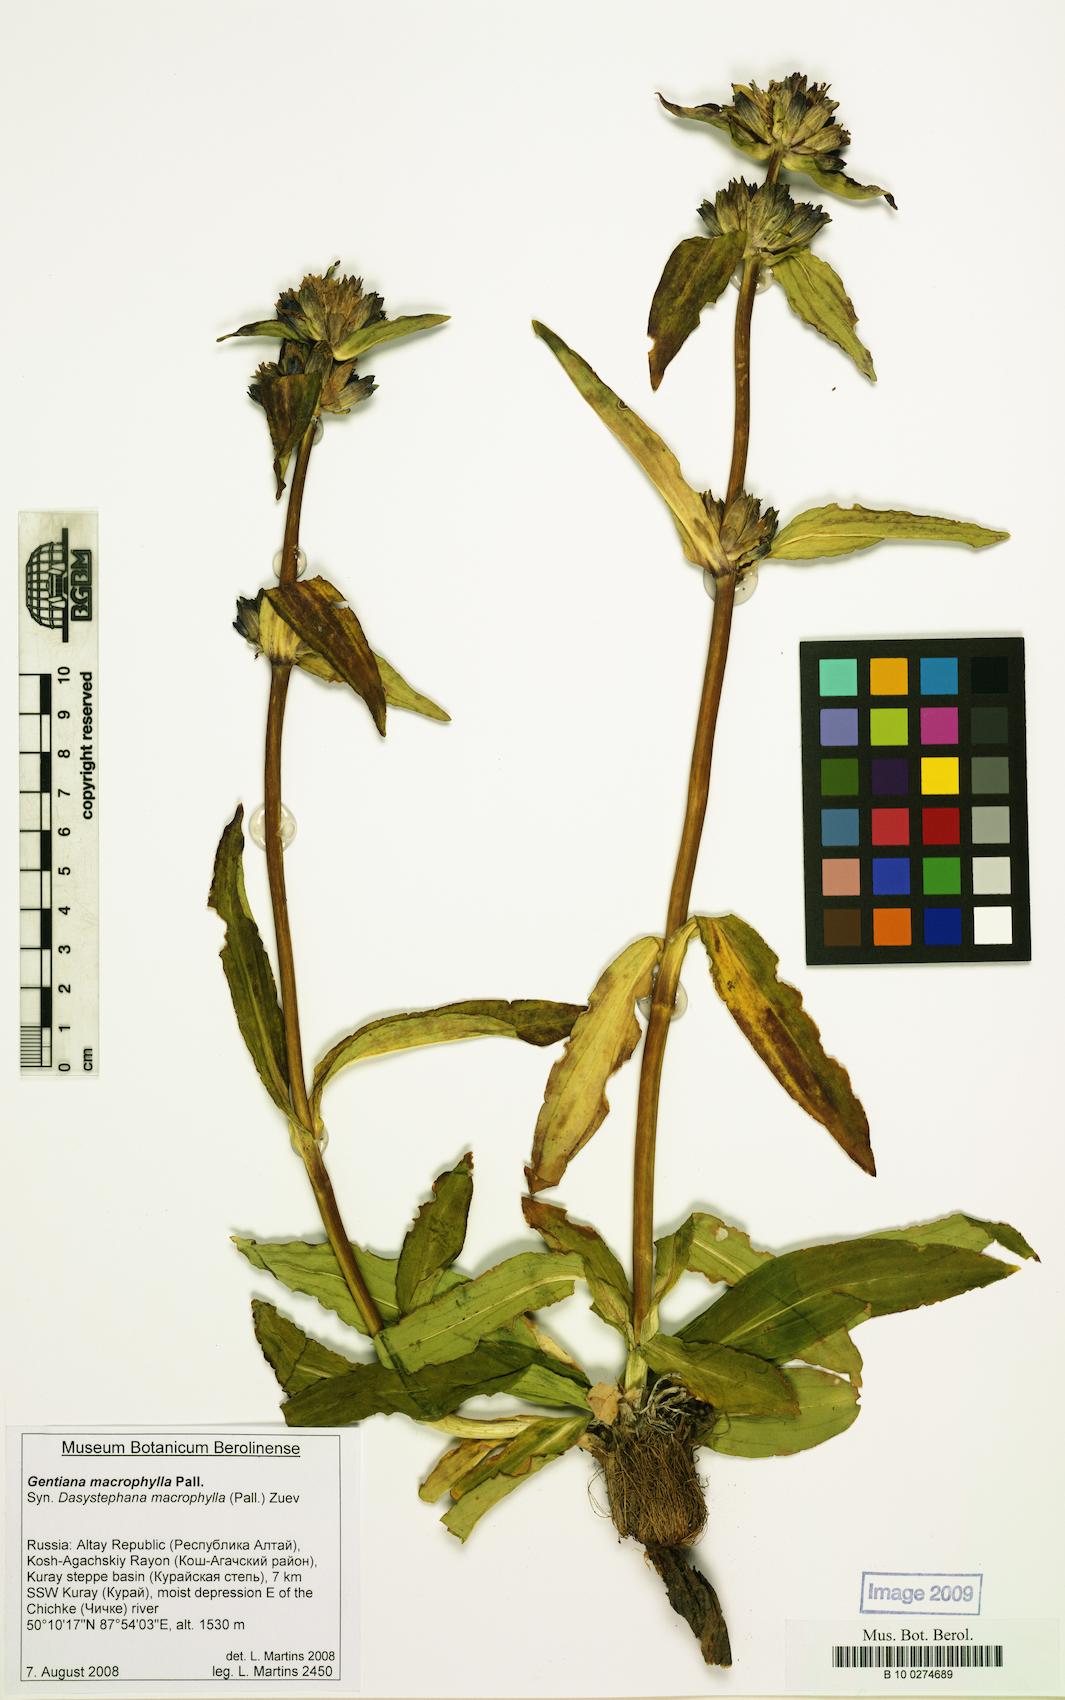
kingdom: Plantae
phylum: Tracheophyta
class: Magnoliopsida
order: Gentianales
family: Gentianaceae
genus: Gentiana
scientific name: Gentiana macrophylla
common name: Large-leaf gentian
